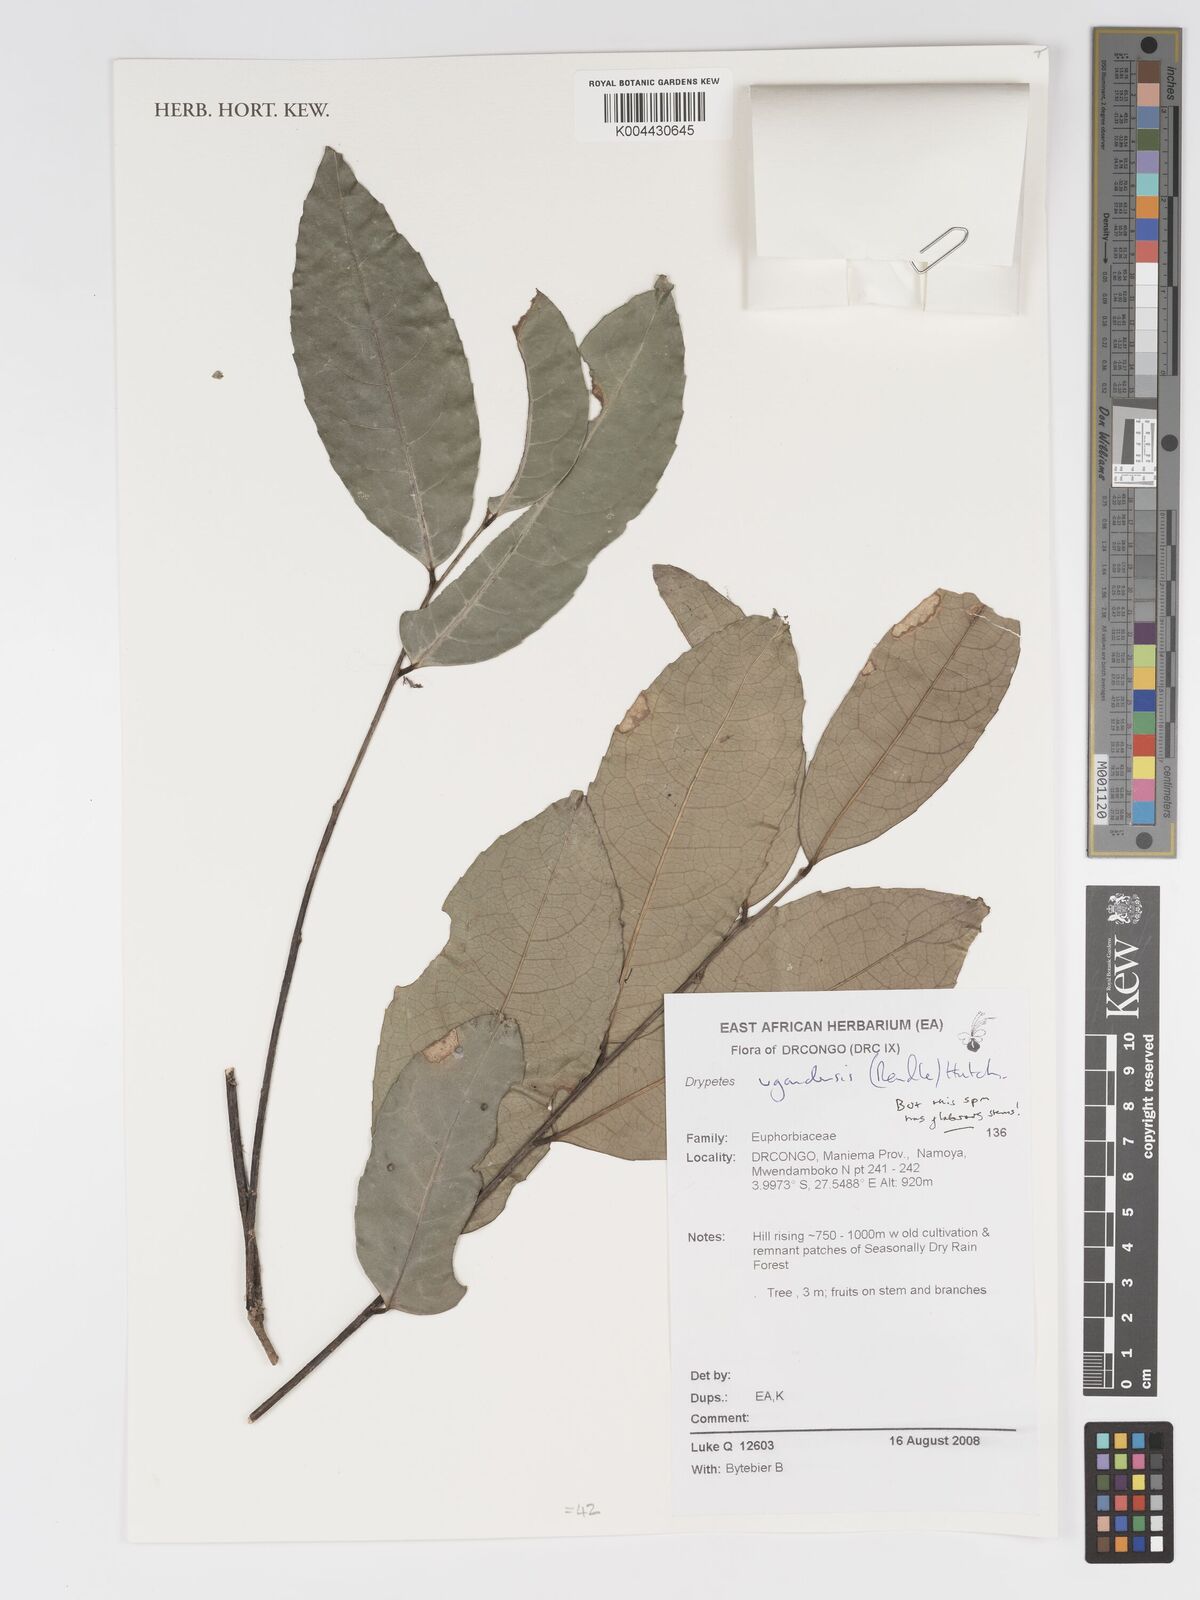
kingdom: Plantae
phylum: Tracheophyta
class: Magnoliopsida
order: Malpighiales
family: Putranjivaceae
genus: Drypetes
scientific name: Drypetes ugandensis
